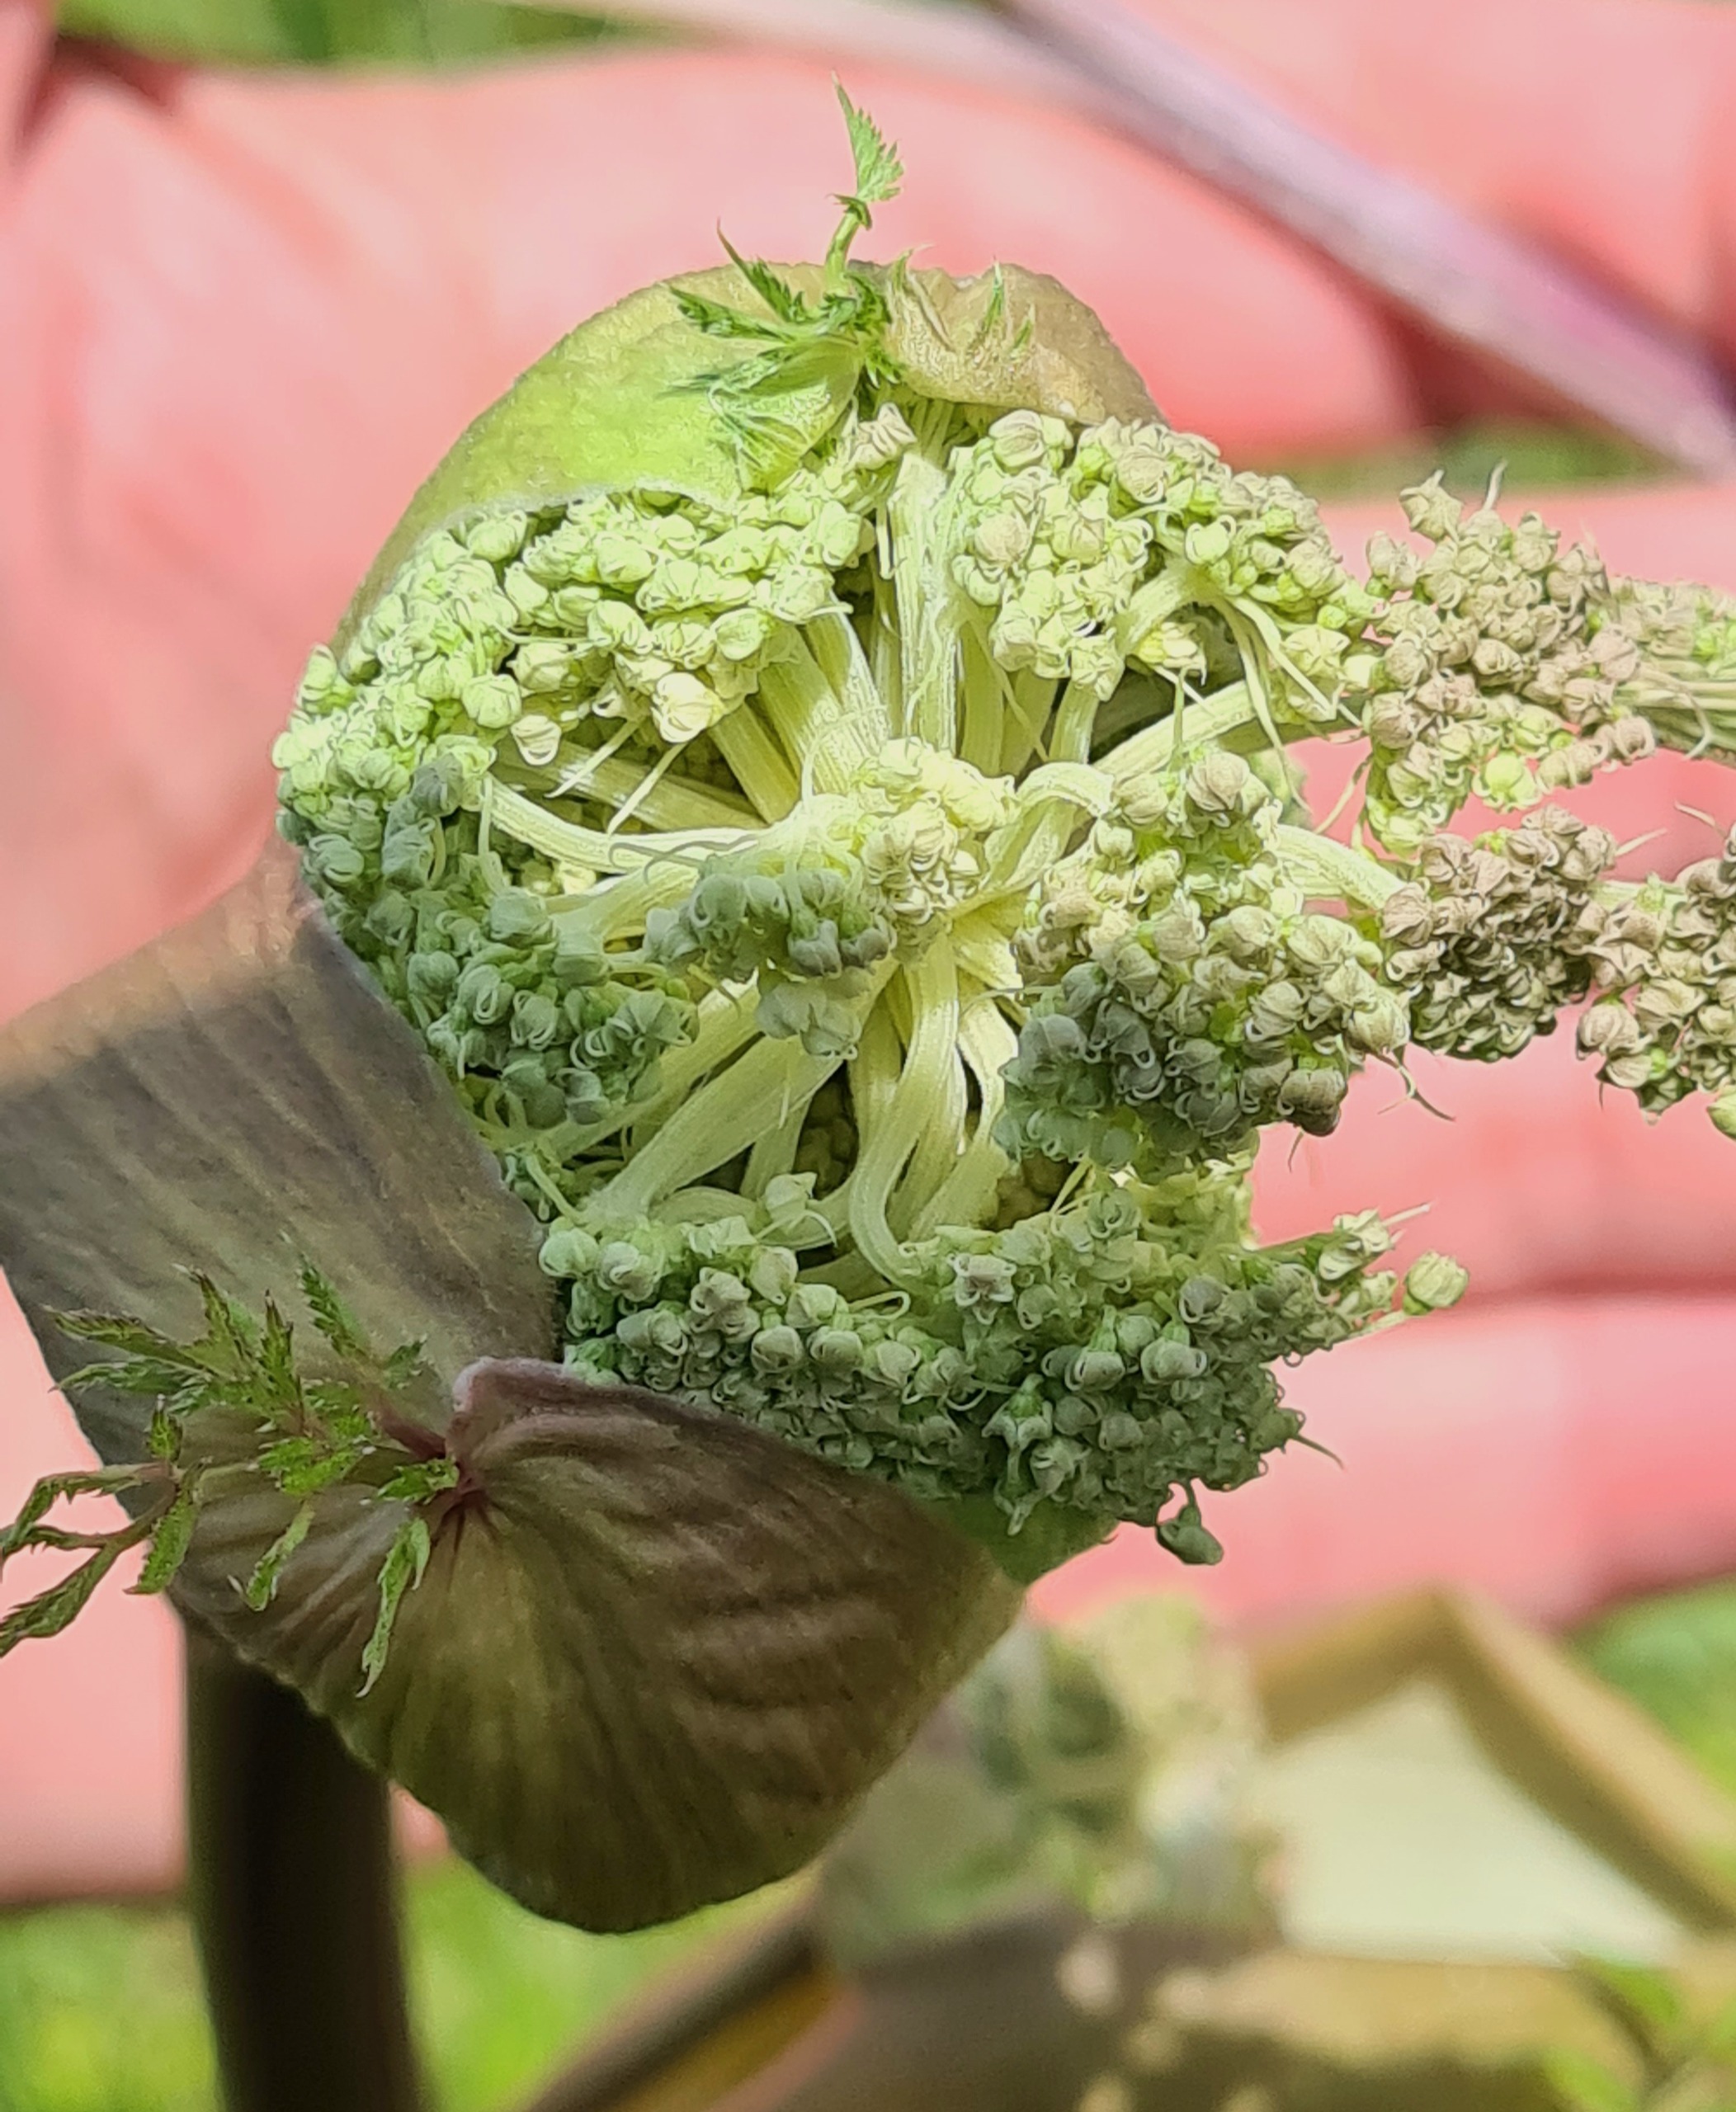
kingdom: Plantae
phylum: Tracheophyta
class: Magnoliopsida
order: Apiales
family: Apiaceae
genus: Angelica
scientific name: Angelica sylvestris
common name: Angelik
